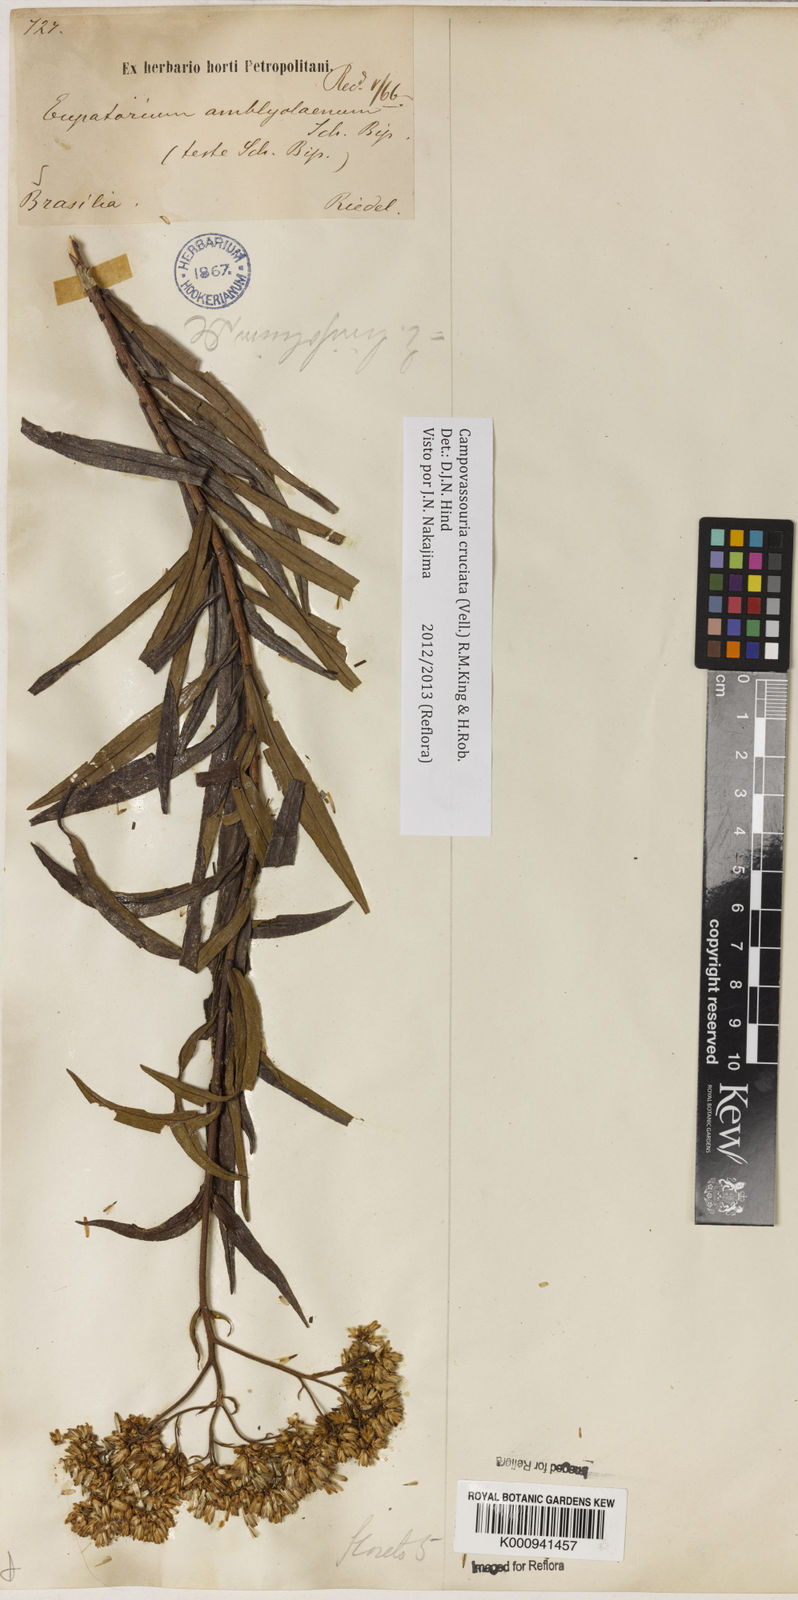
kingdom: Plantae
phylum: Tracheophyta
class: Magnoliopsida
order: Asterales
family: Asteraceae
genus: Campovassouria
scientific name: Campovassouria cruciata
